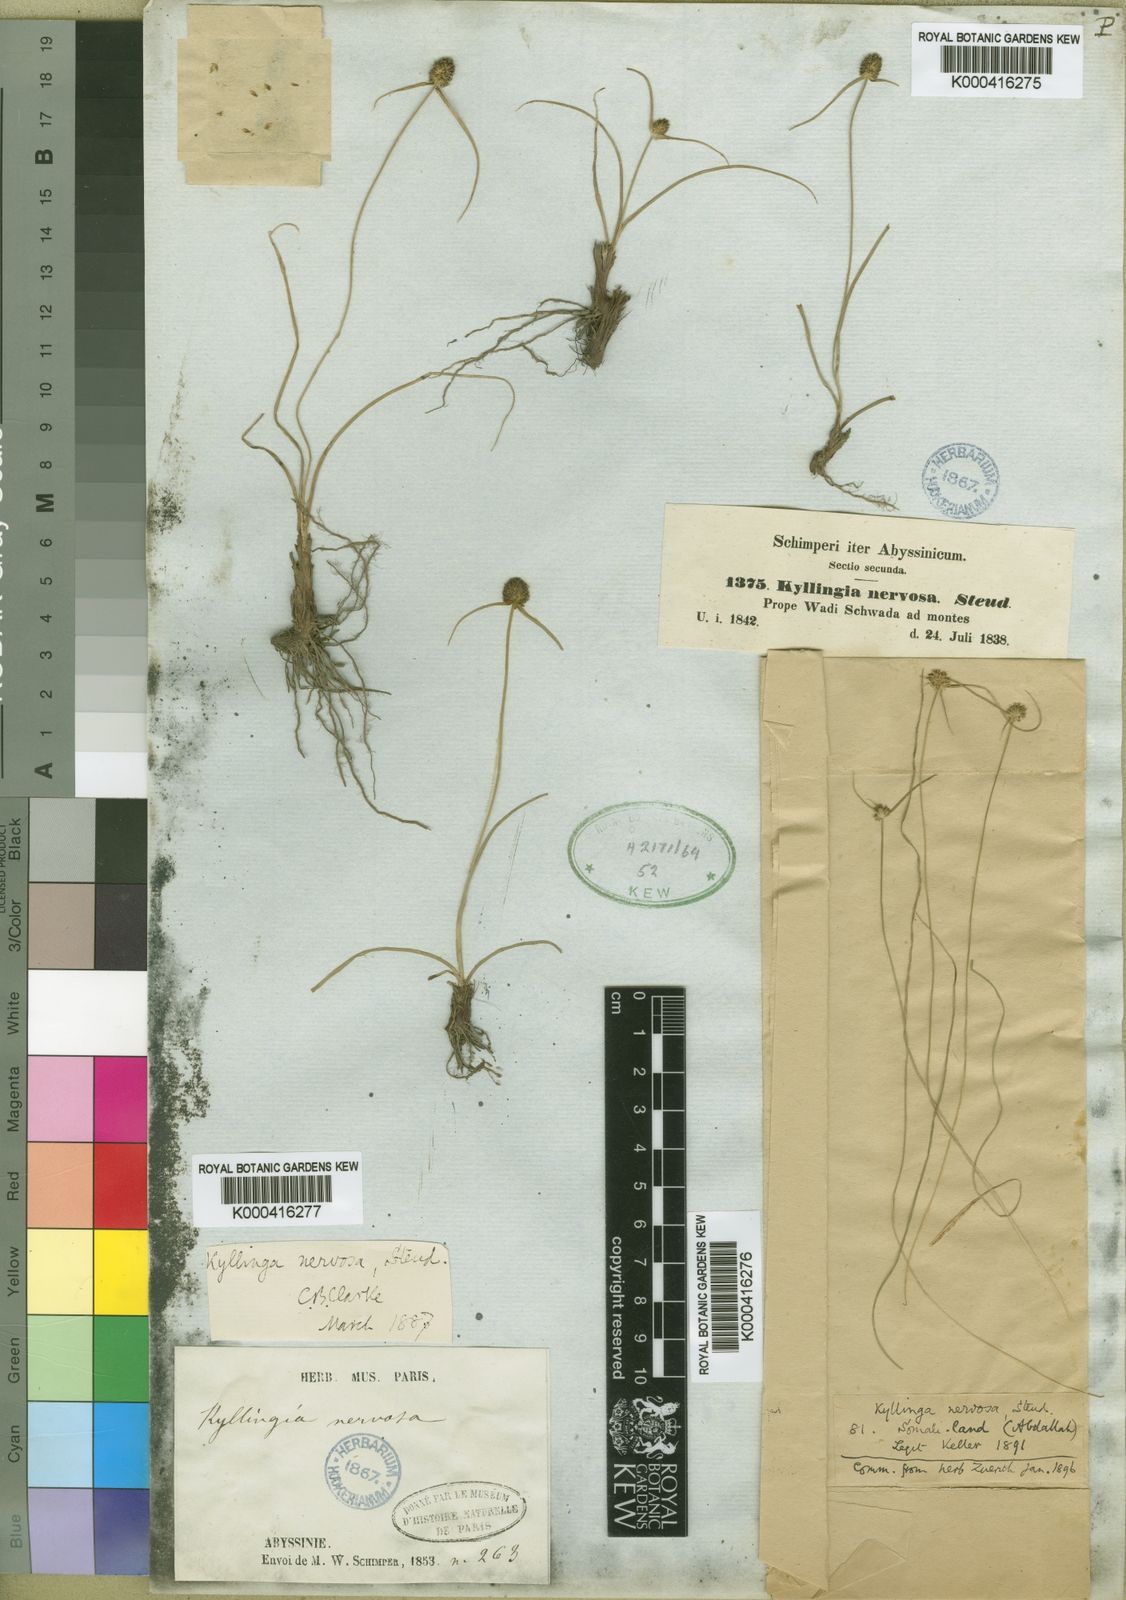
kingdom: Plantae
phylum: Tracheophyta
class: Liliopsida
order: Poales
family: Cyperaceae
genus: Cyperus
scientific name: Cyperus costatus
